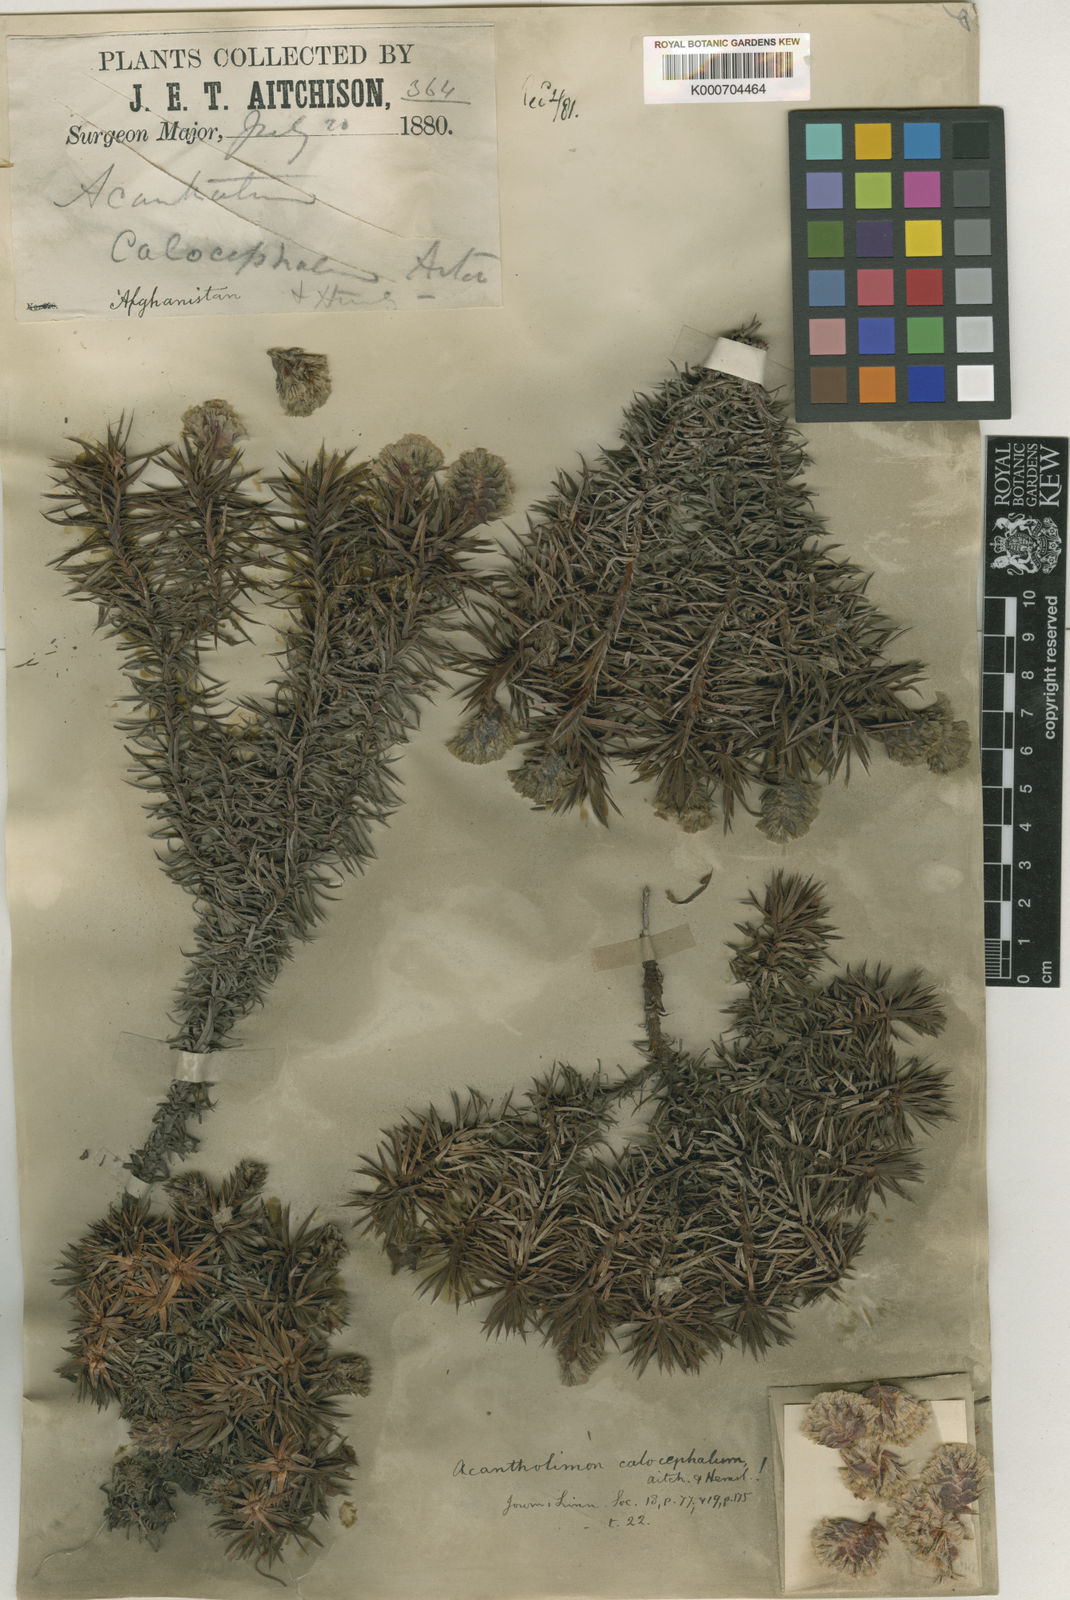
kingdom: Plantae
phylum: Tracheophyta
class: Magnoliopsida
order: Caryophyllales
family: Plumbaginaceae
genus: Acantholimon
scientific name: Acantholimon calocephalum
